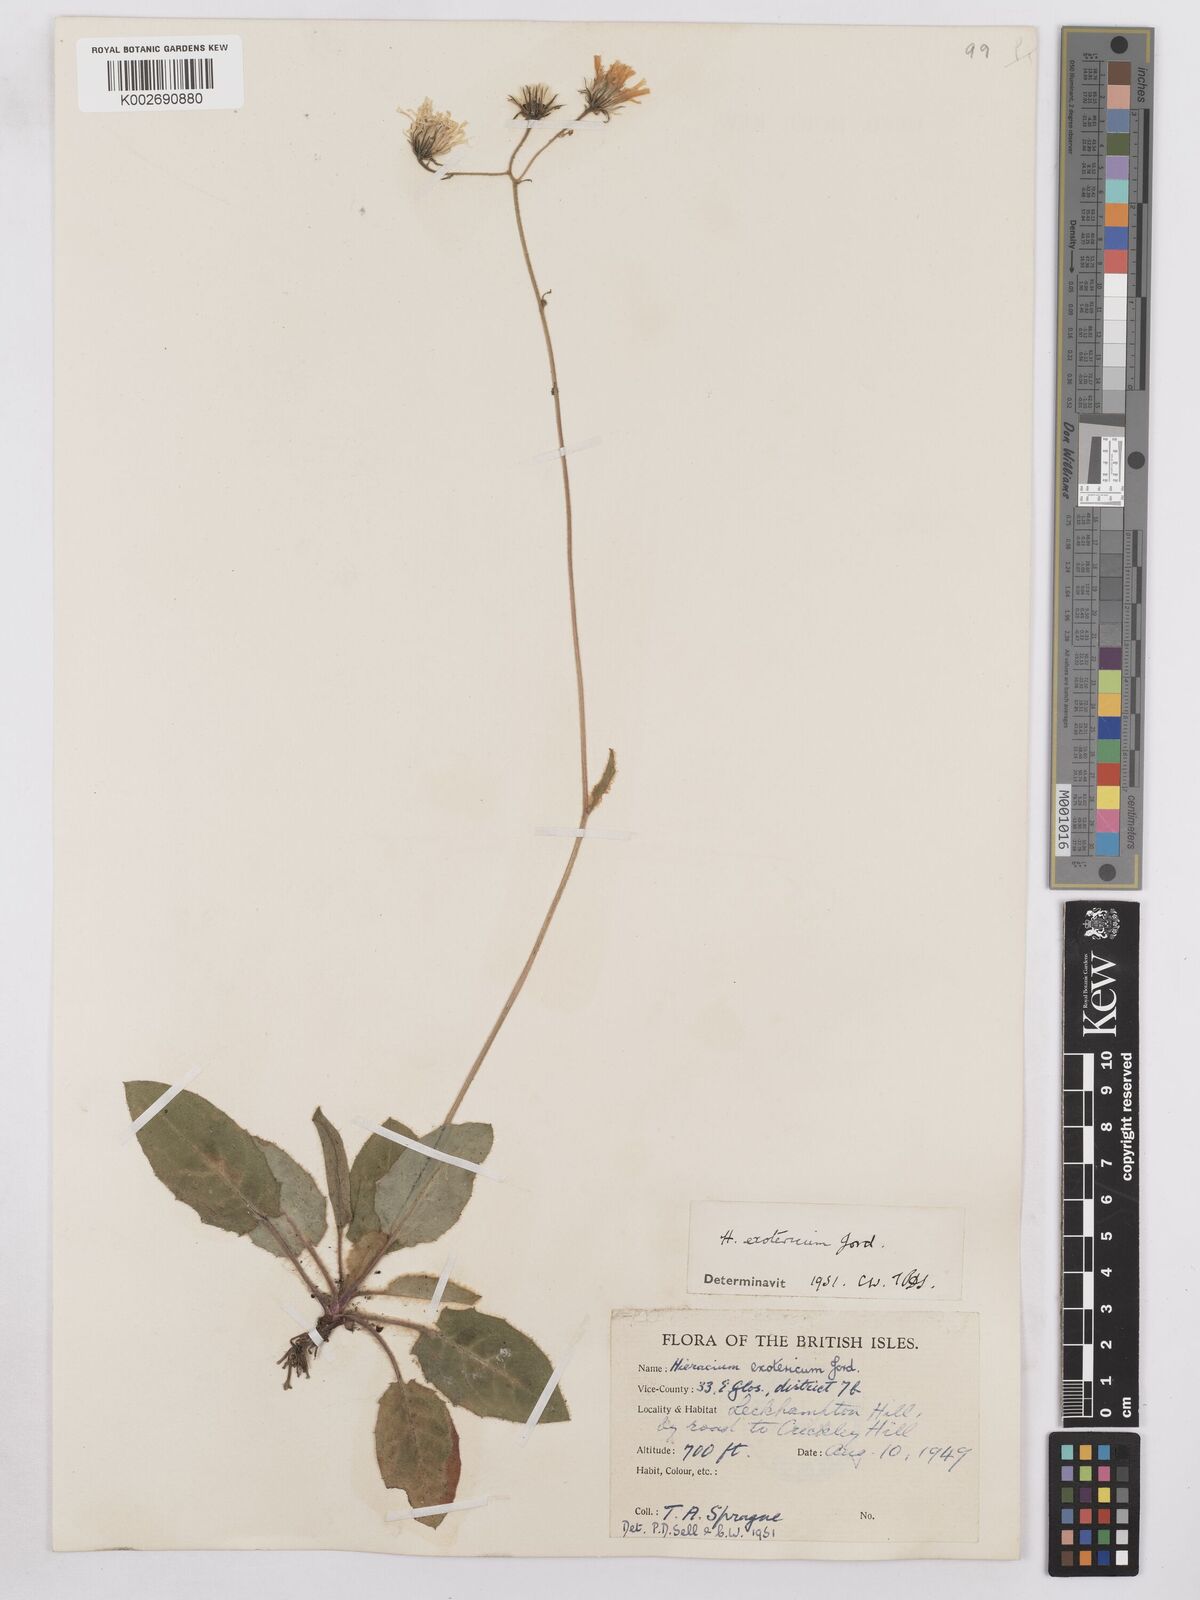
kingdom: Plantae
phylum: Tracheophyta
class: Magnoliopsida
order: Asterales
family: Asteraceae
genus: Hieracium
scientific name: Hieracium murorum
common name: Wall hawkweed
